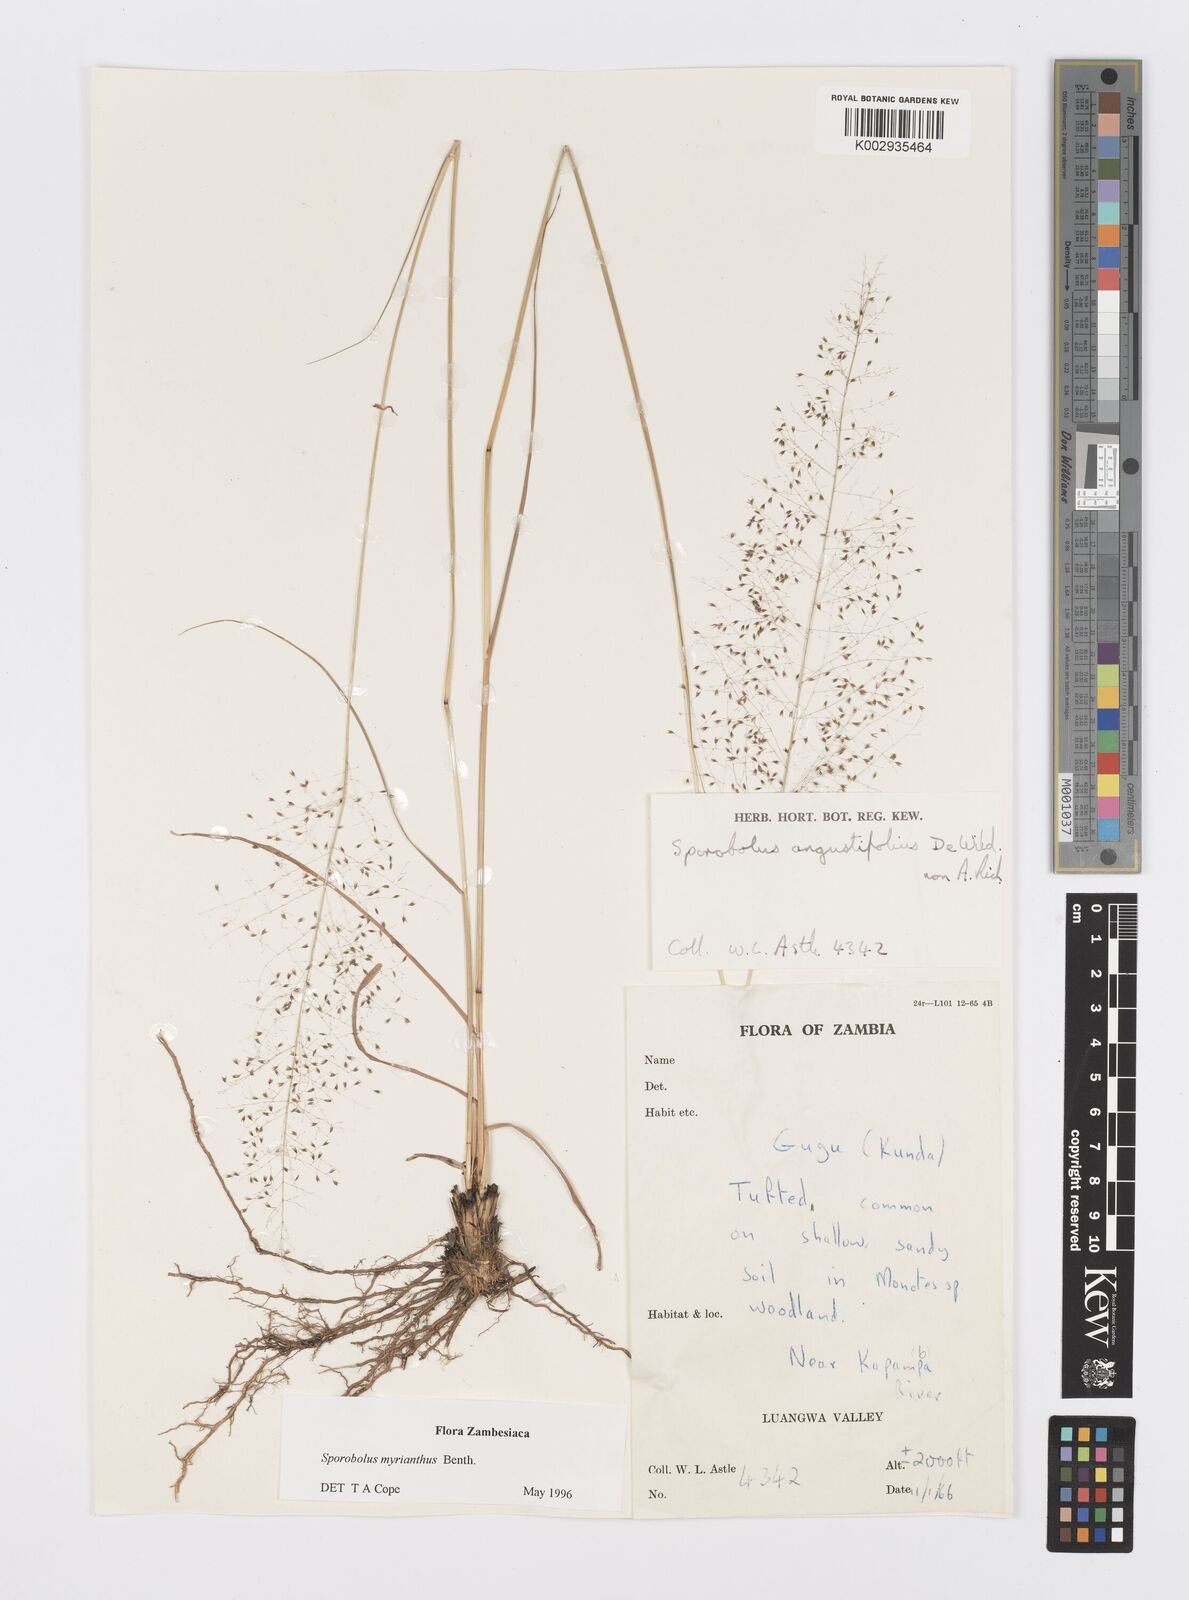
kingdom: Plantae
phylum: Tracheophyta
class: Liliopsida
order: Poales
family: Poaceae
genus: Sporobolus
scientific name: Sporobolus myrianthus
